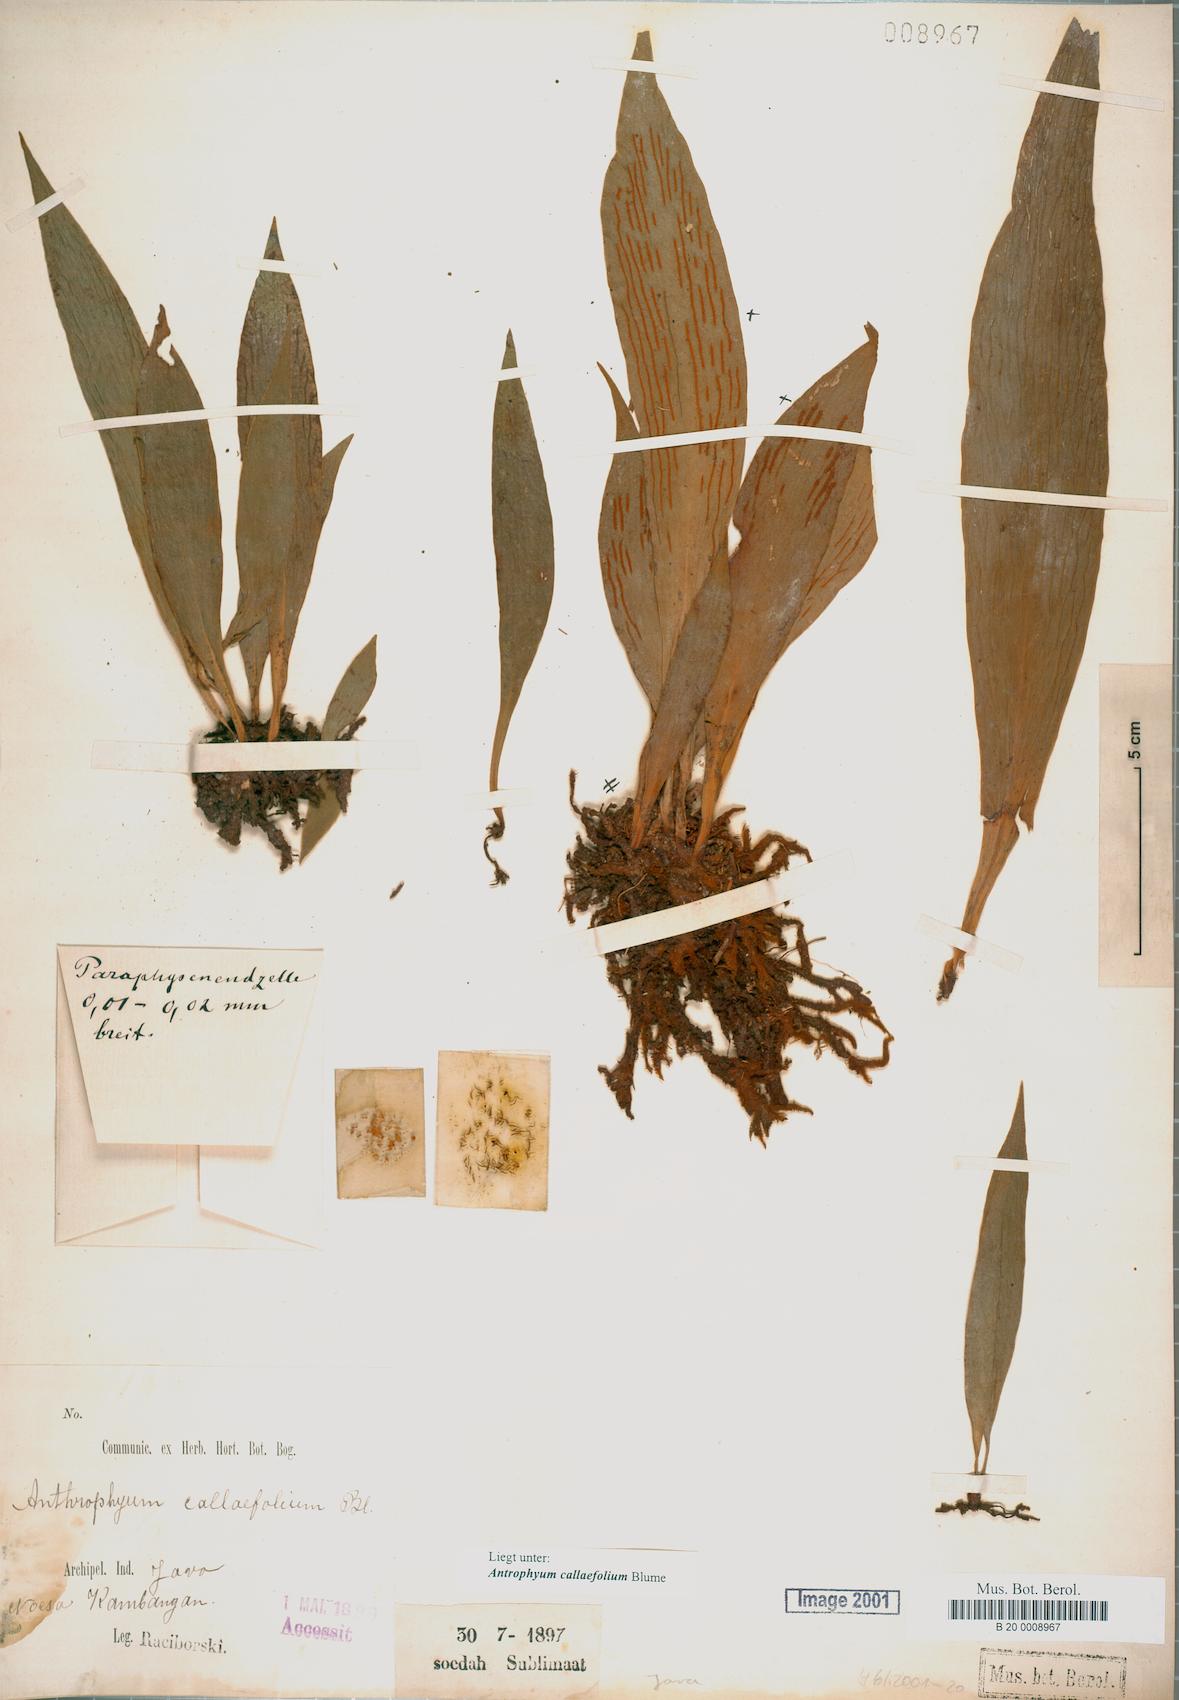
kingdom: Plantae
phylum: Tracheophyta
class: Polypodiopsida
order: Polypodiales
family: Pteridaceae
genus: Antrophyum
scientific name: Antrophyum callifolium
